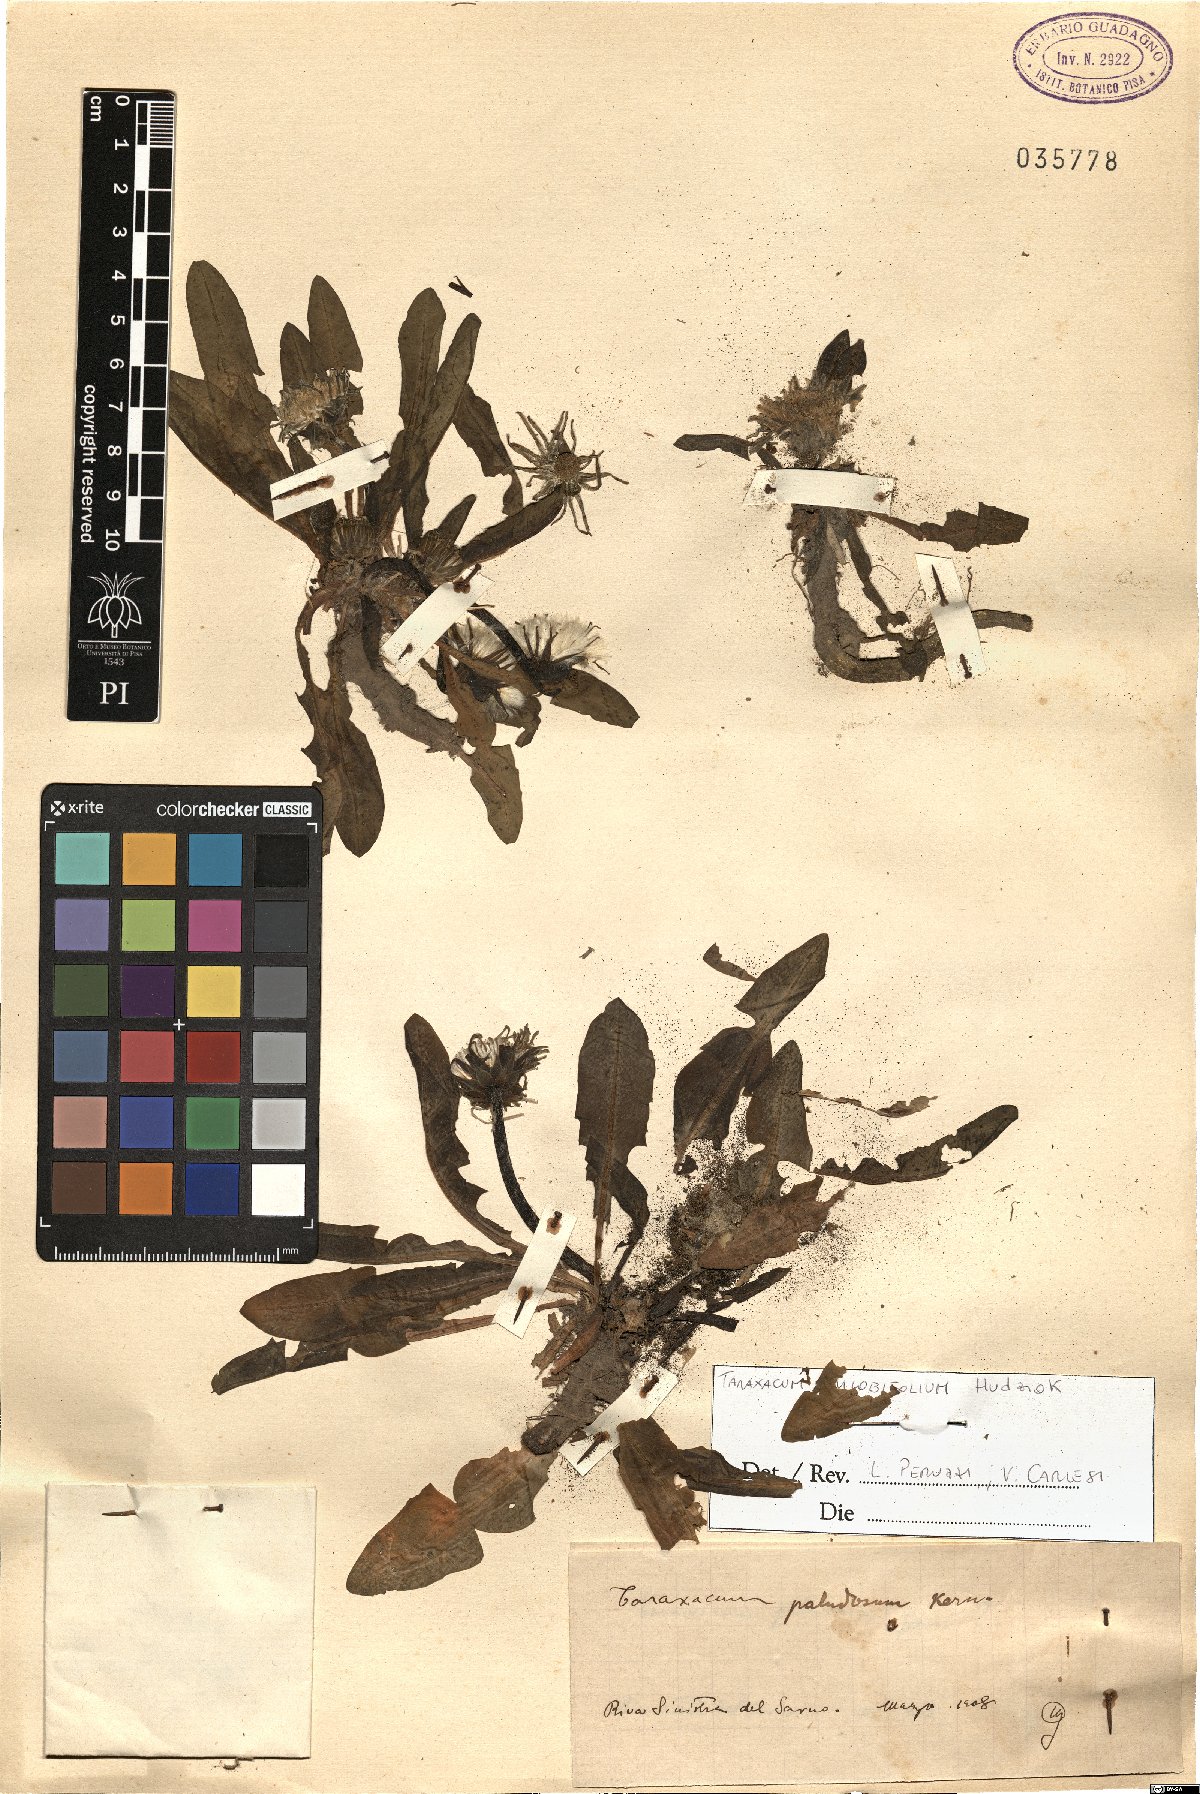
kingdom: Plantae
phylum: Tracheophyta
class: Magnoliopsida
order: Asterales
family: Asteraceae
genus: Taraxacum
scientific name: Taraxacum trilobifolium
